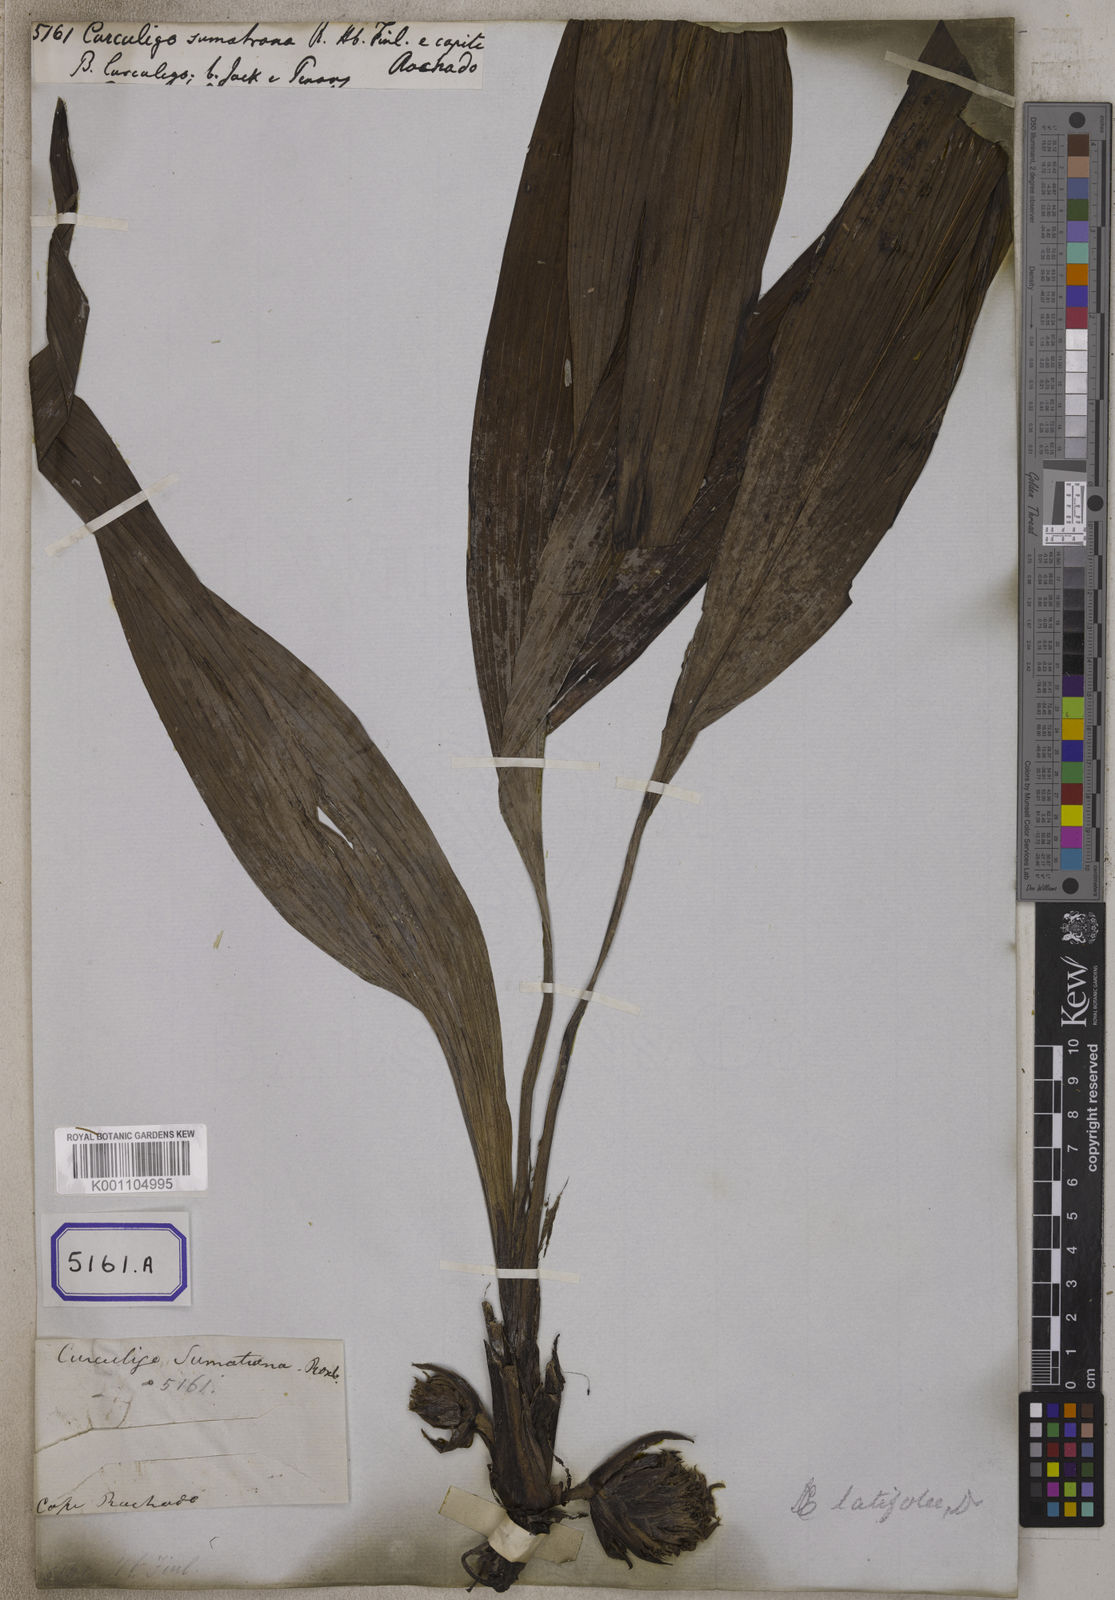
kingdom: Plantae
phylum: Tracheophyta
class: Liliopsida
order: Asparagales
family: Hypoxidaceae
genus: Curculigo
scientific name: Curculigo capitulata
